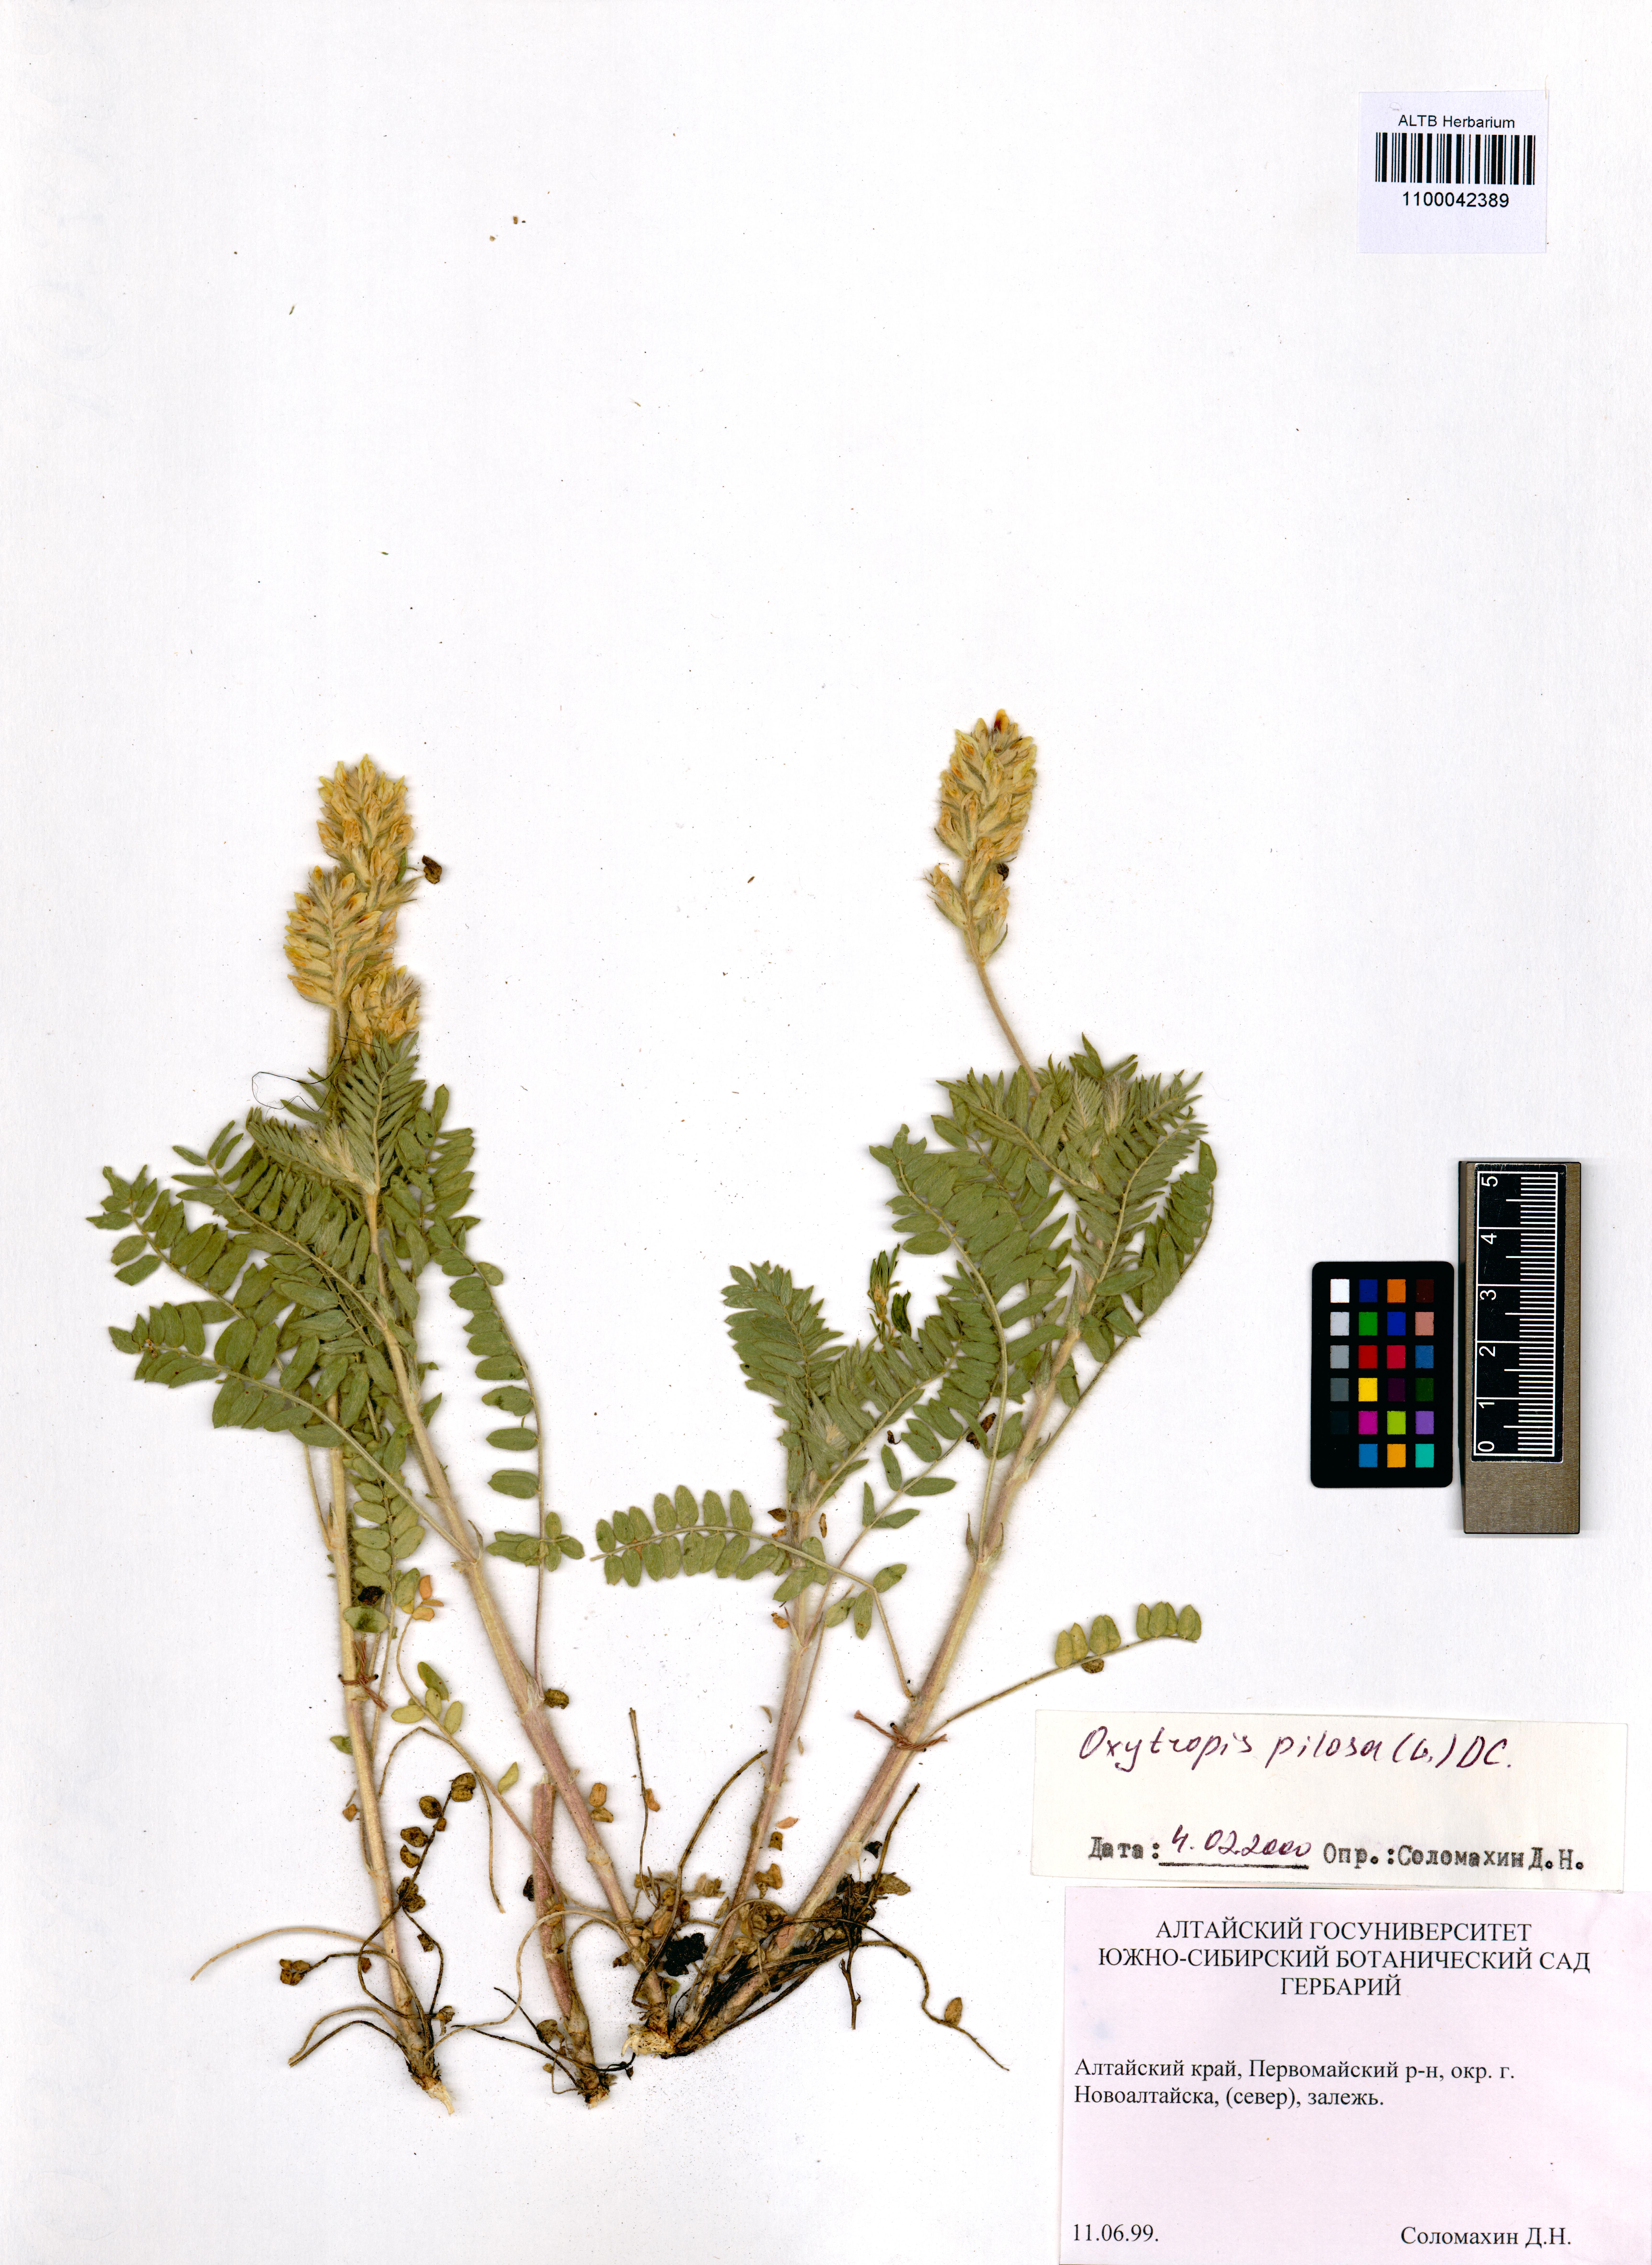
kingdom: Plantae
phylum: Tracheophyta
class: Magnoliopsida
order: Fabales
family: Fabaceae
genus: Oxytropis
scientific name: Oxytropis pilosa
